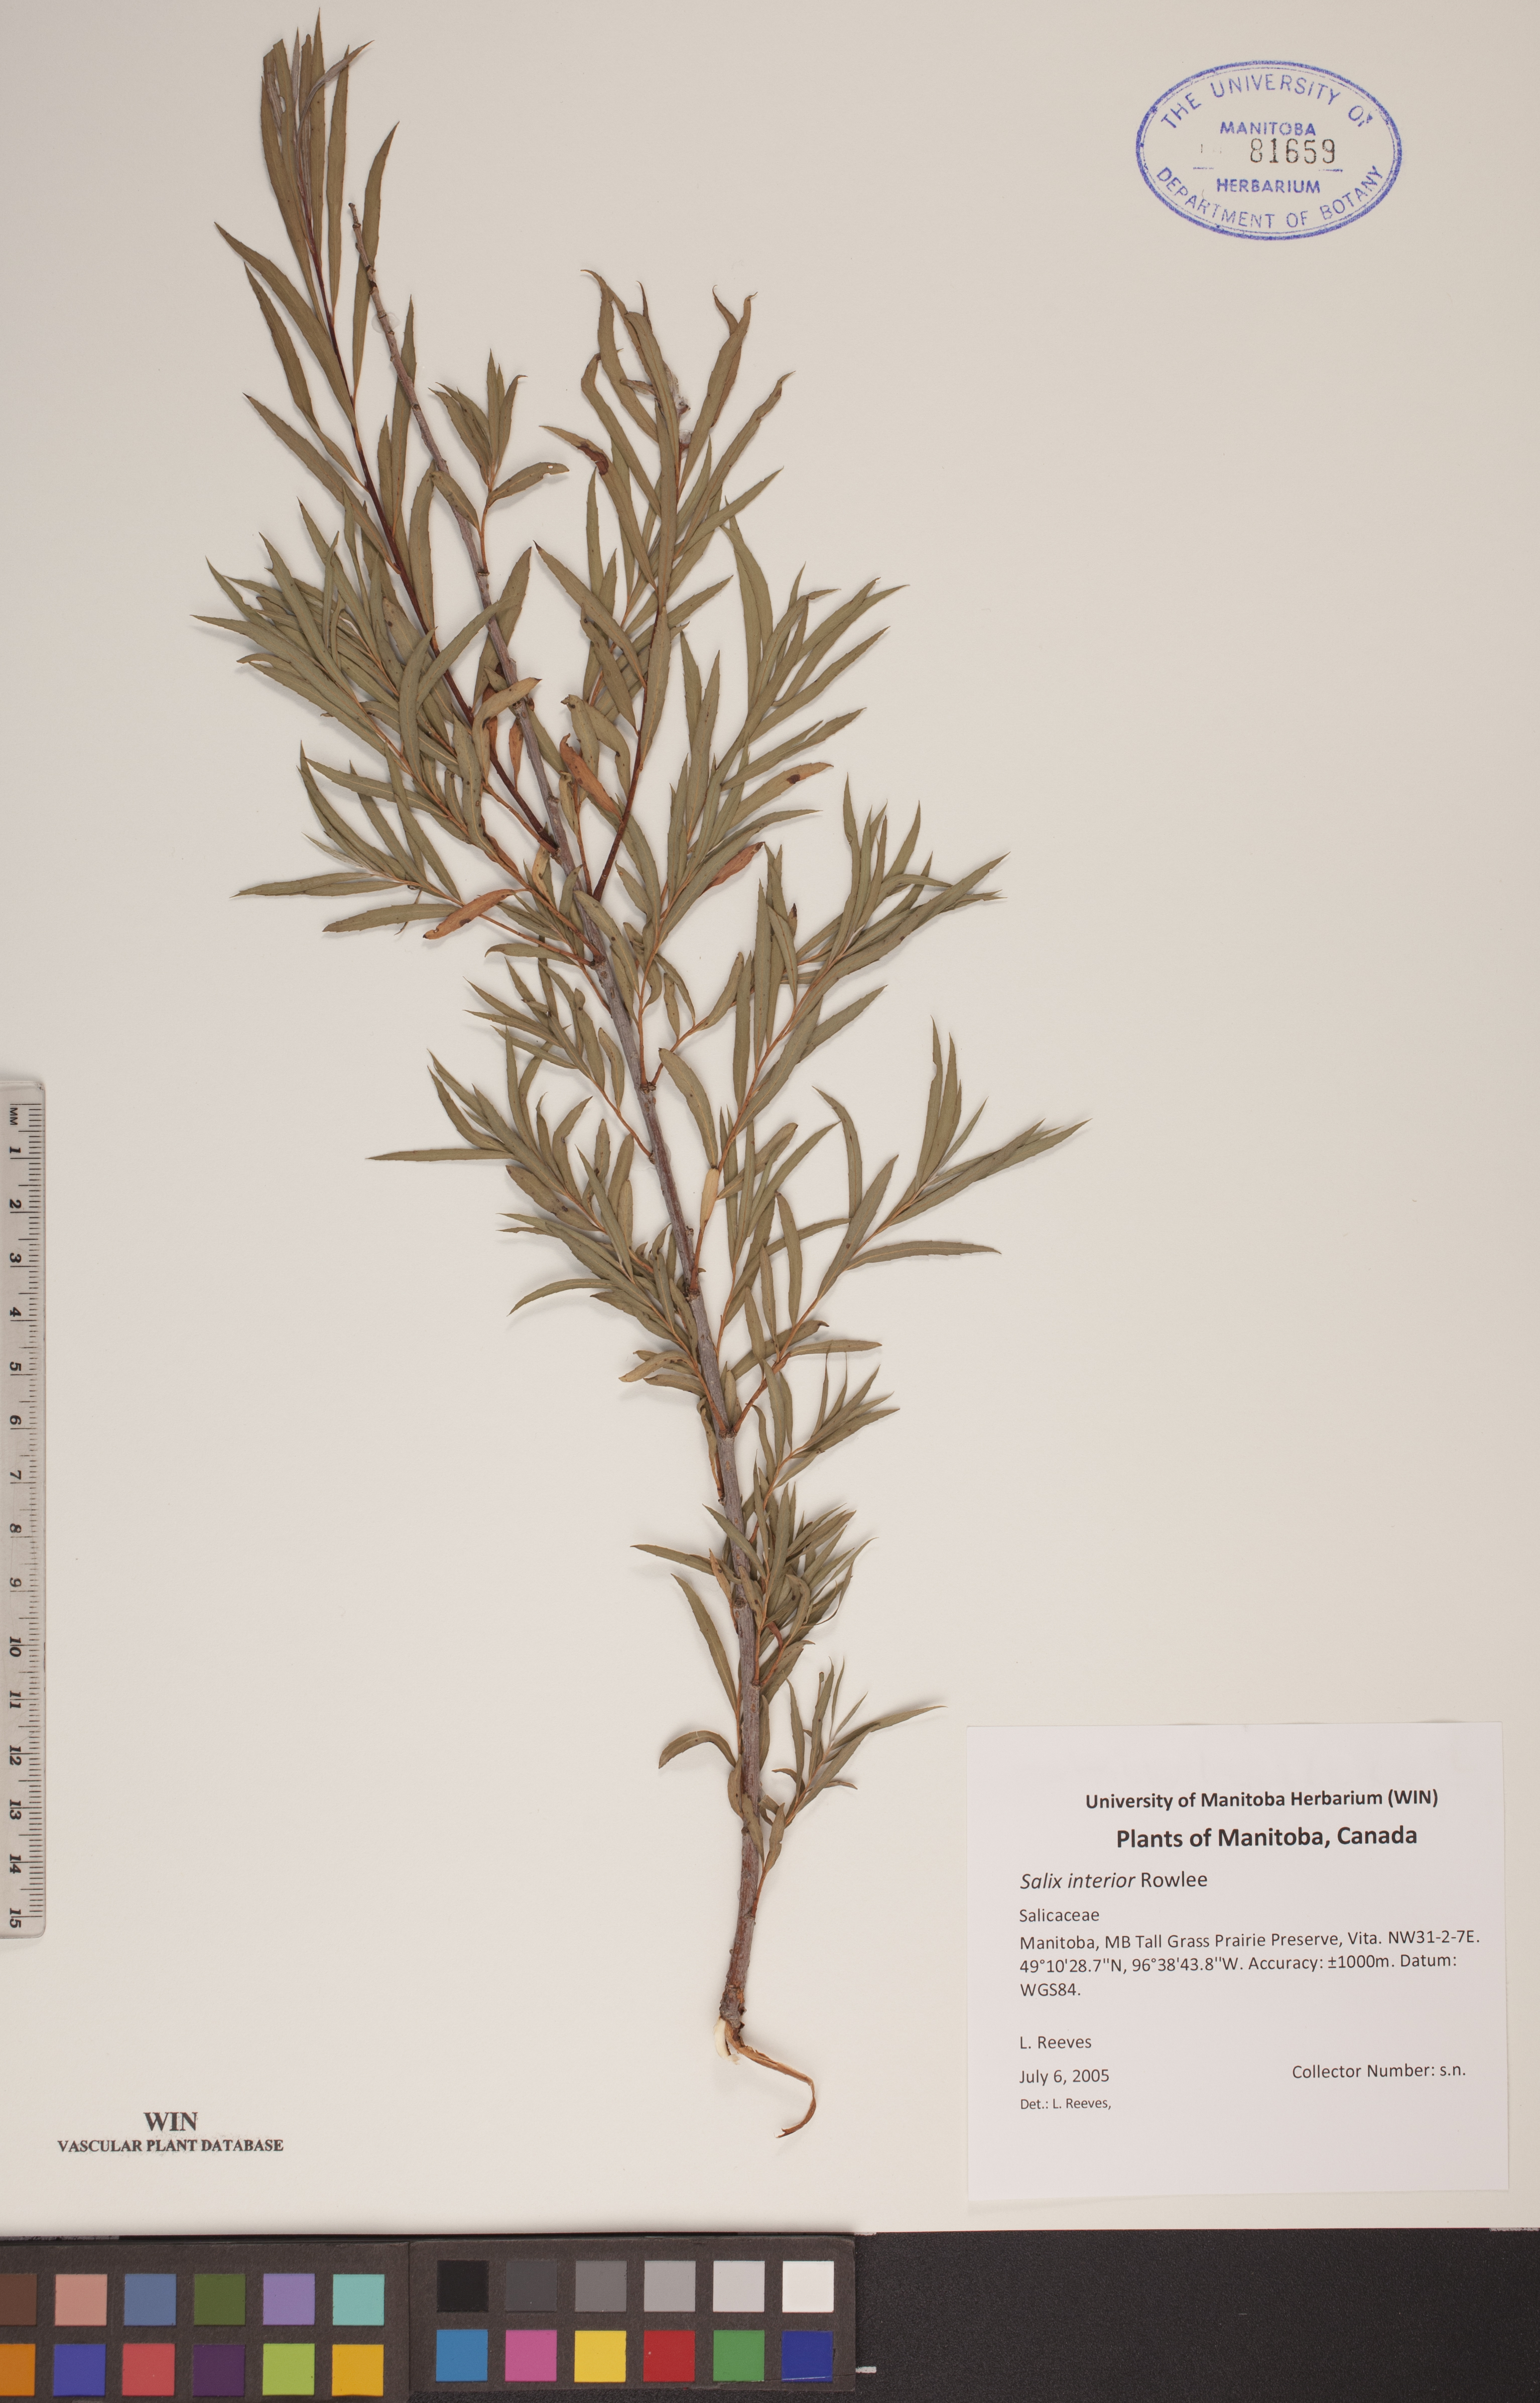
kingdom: Plantae
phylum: Tracheophyta
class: Magnoliopsida
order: Malpighiales
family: Salicaceae
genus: Salix
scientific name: Salix interior
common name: Sandbar willow
